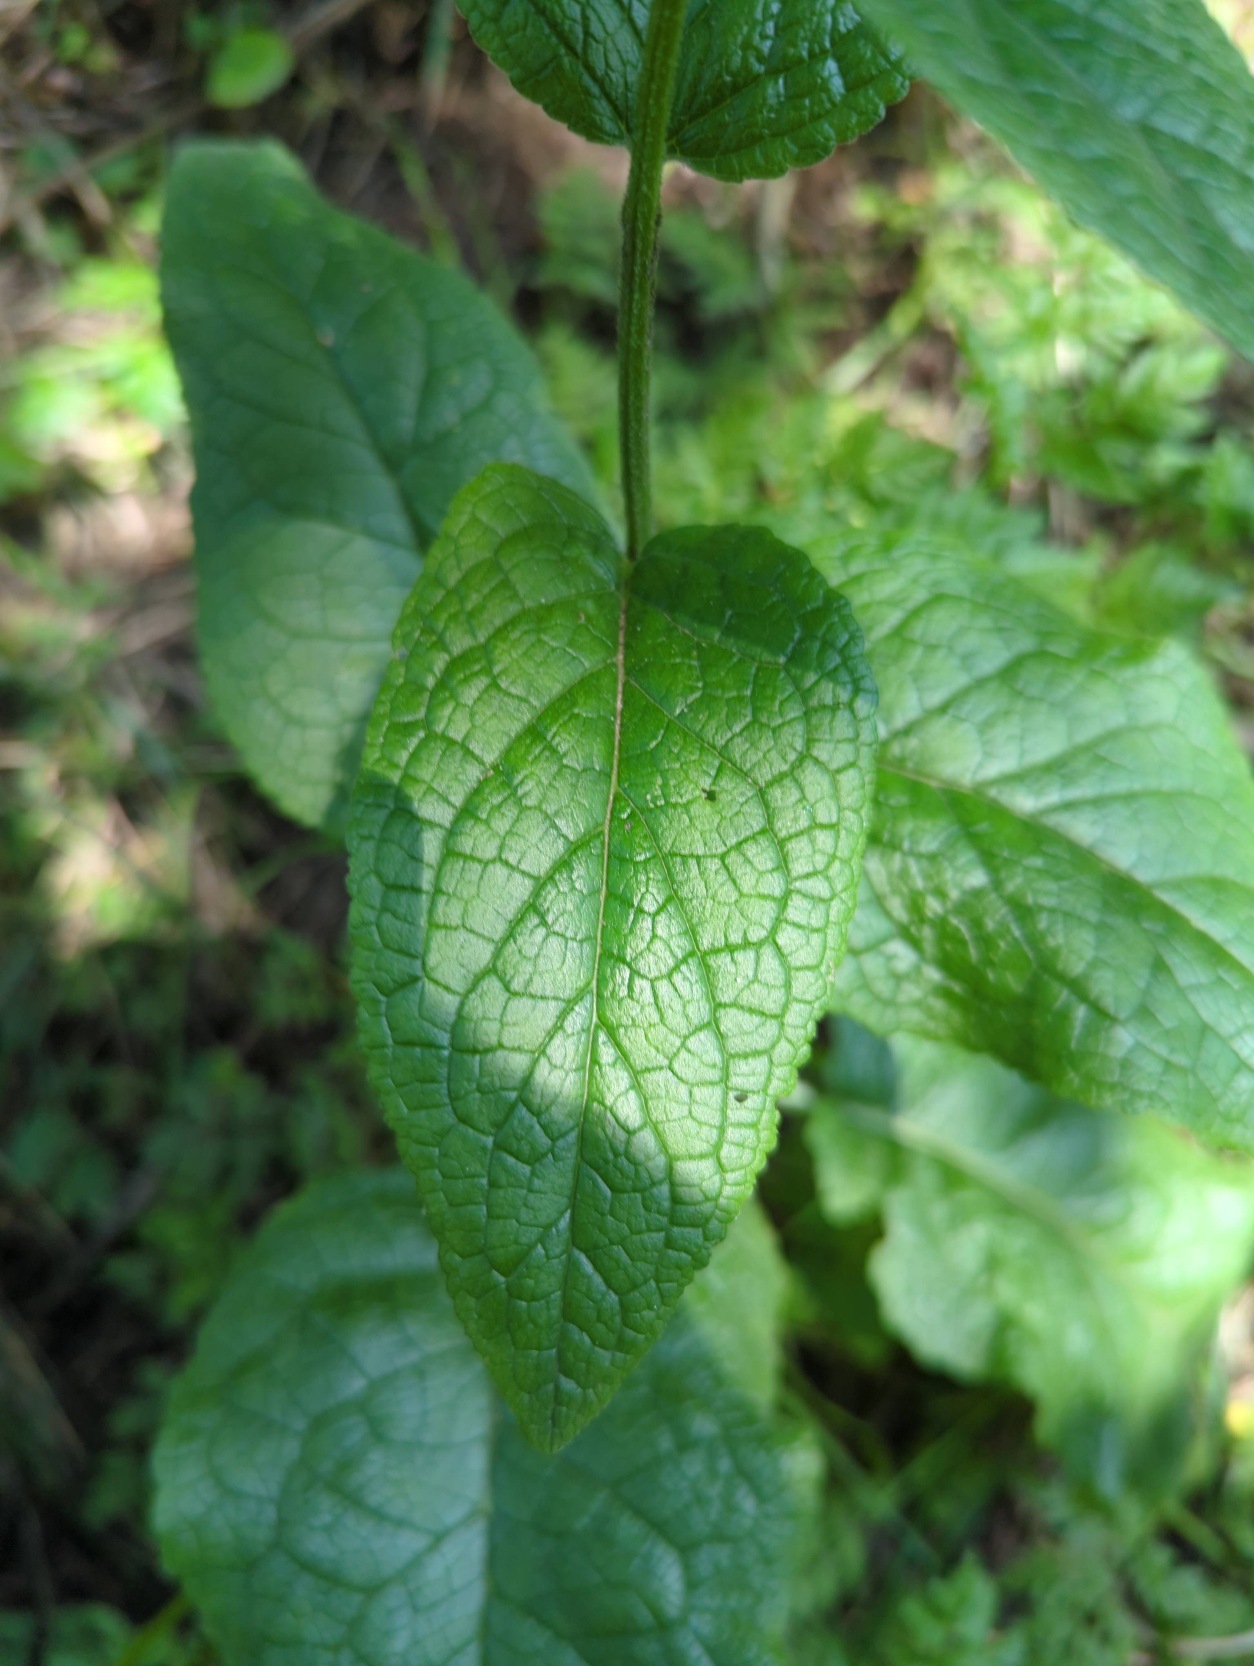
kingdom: Plantae
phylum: Tracheophyta
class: Magnoliopsida
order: Lamiales
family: Scrophulariaceae
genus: Verbascum
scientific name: Verbascum nigrum
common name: Mørk kongelys
